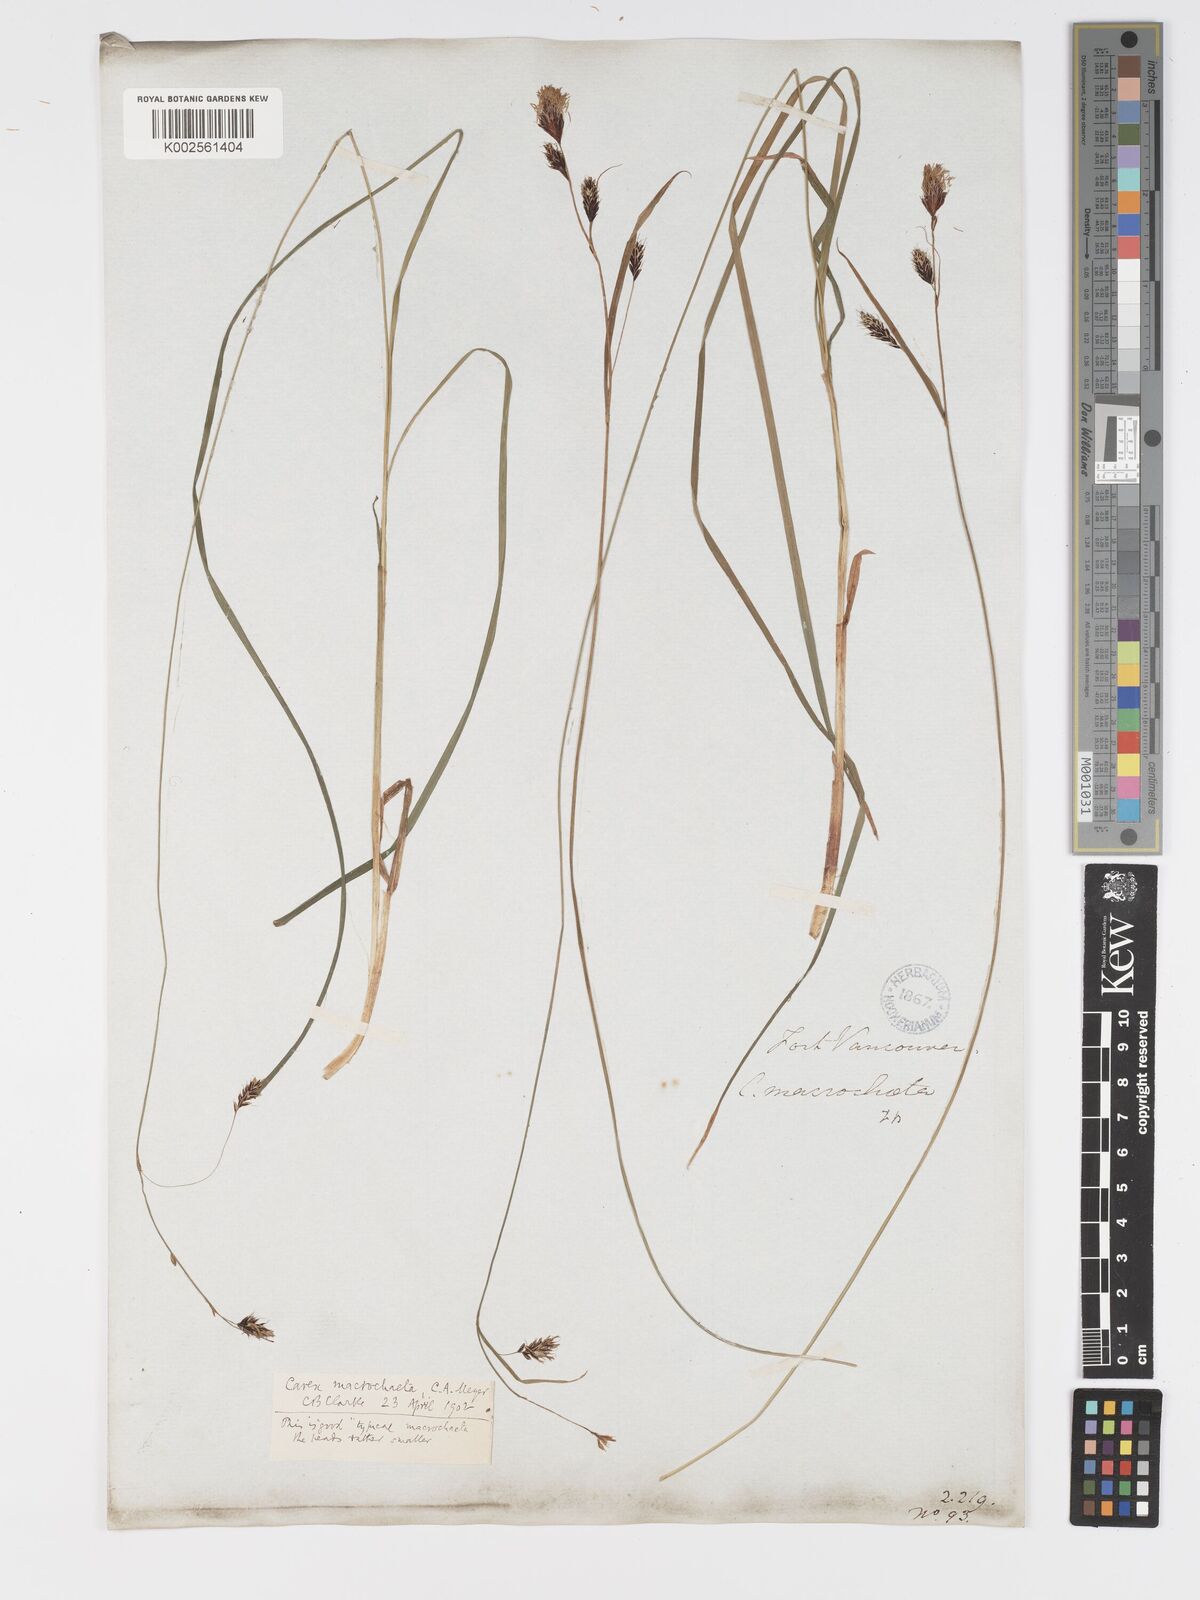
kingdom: Plantae
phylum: Tracheophyta
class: Liliopsida
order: Poales
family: Cyperaceae
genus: Carex
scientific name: Carex macrochaeta
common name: Alaska large awn sedge
